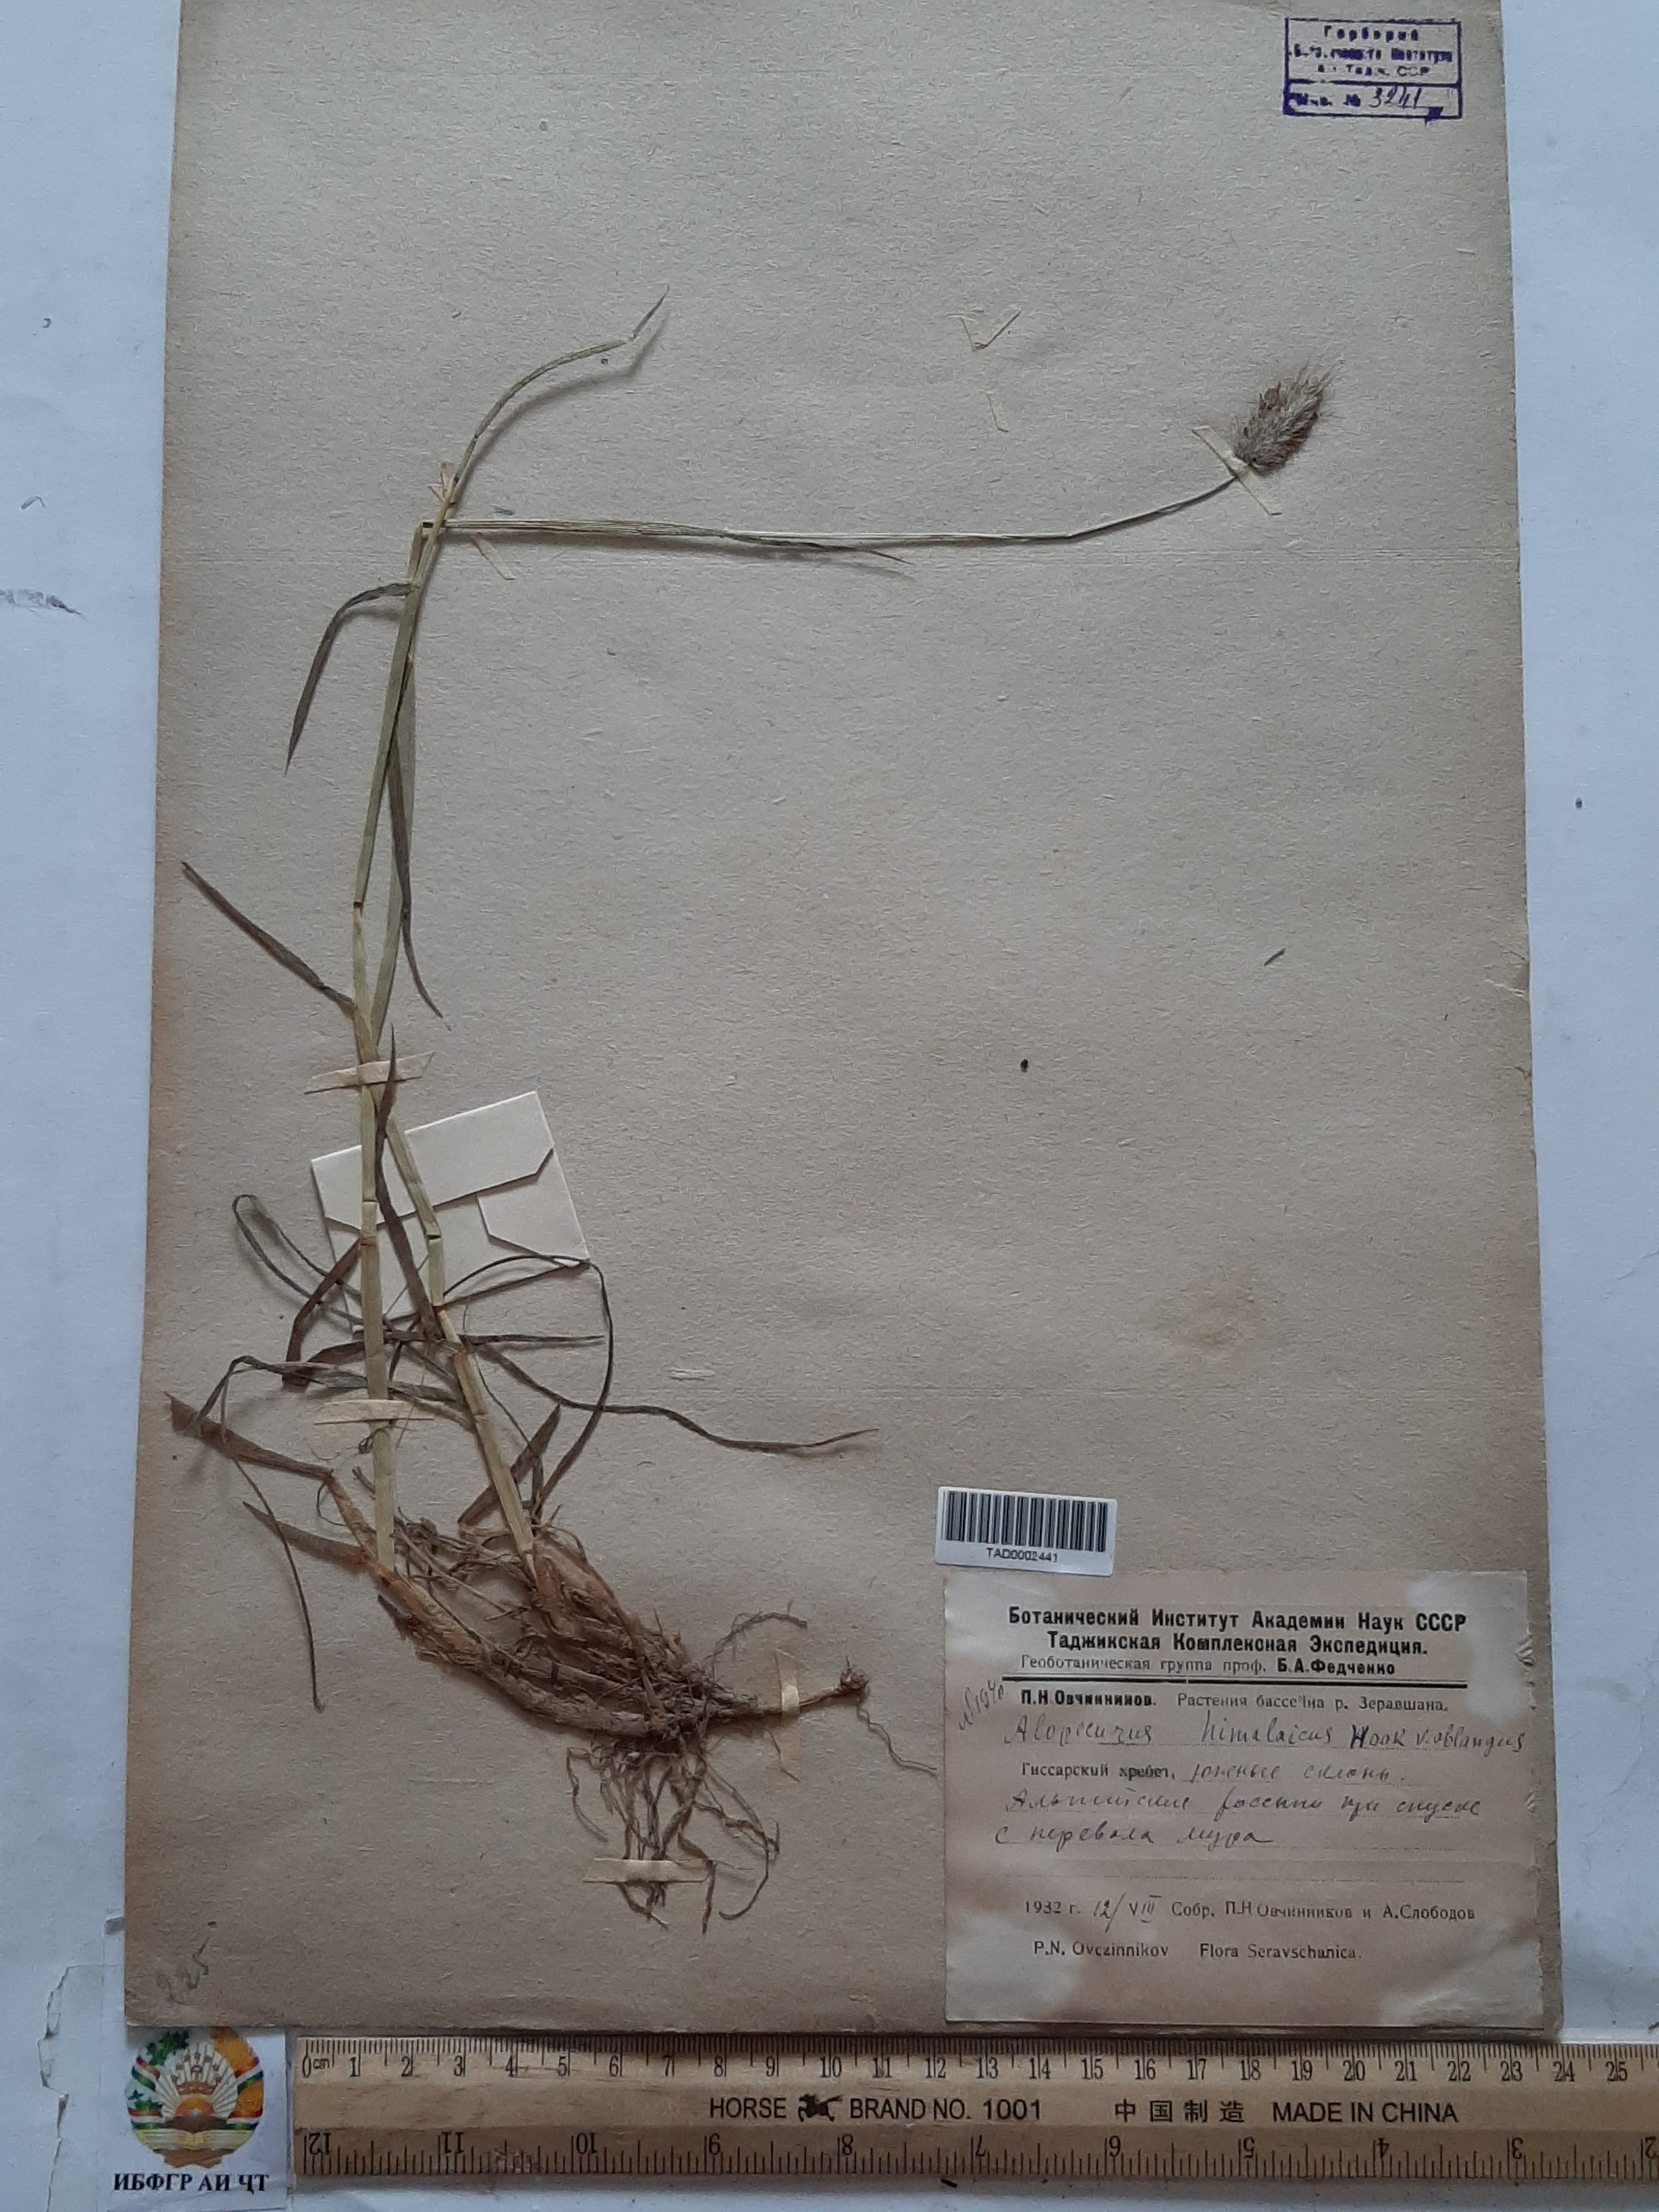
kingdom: Plantae
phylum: Tracheophyta
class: Liliopsida
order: Poales
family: Poaceae
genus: Alopecurus
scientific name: Alopecurus himalaicus
